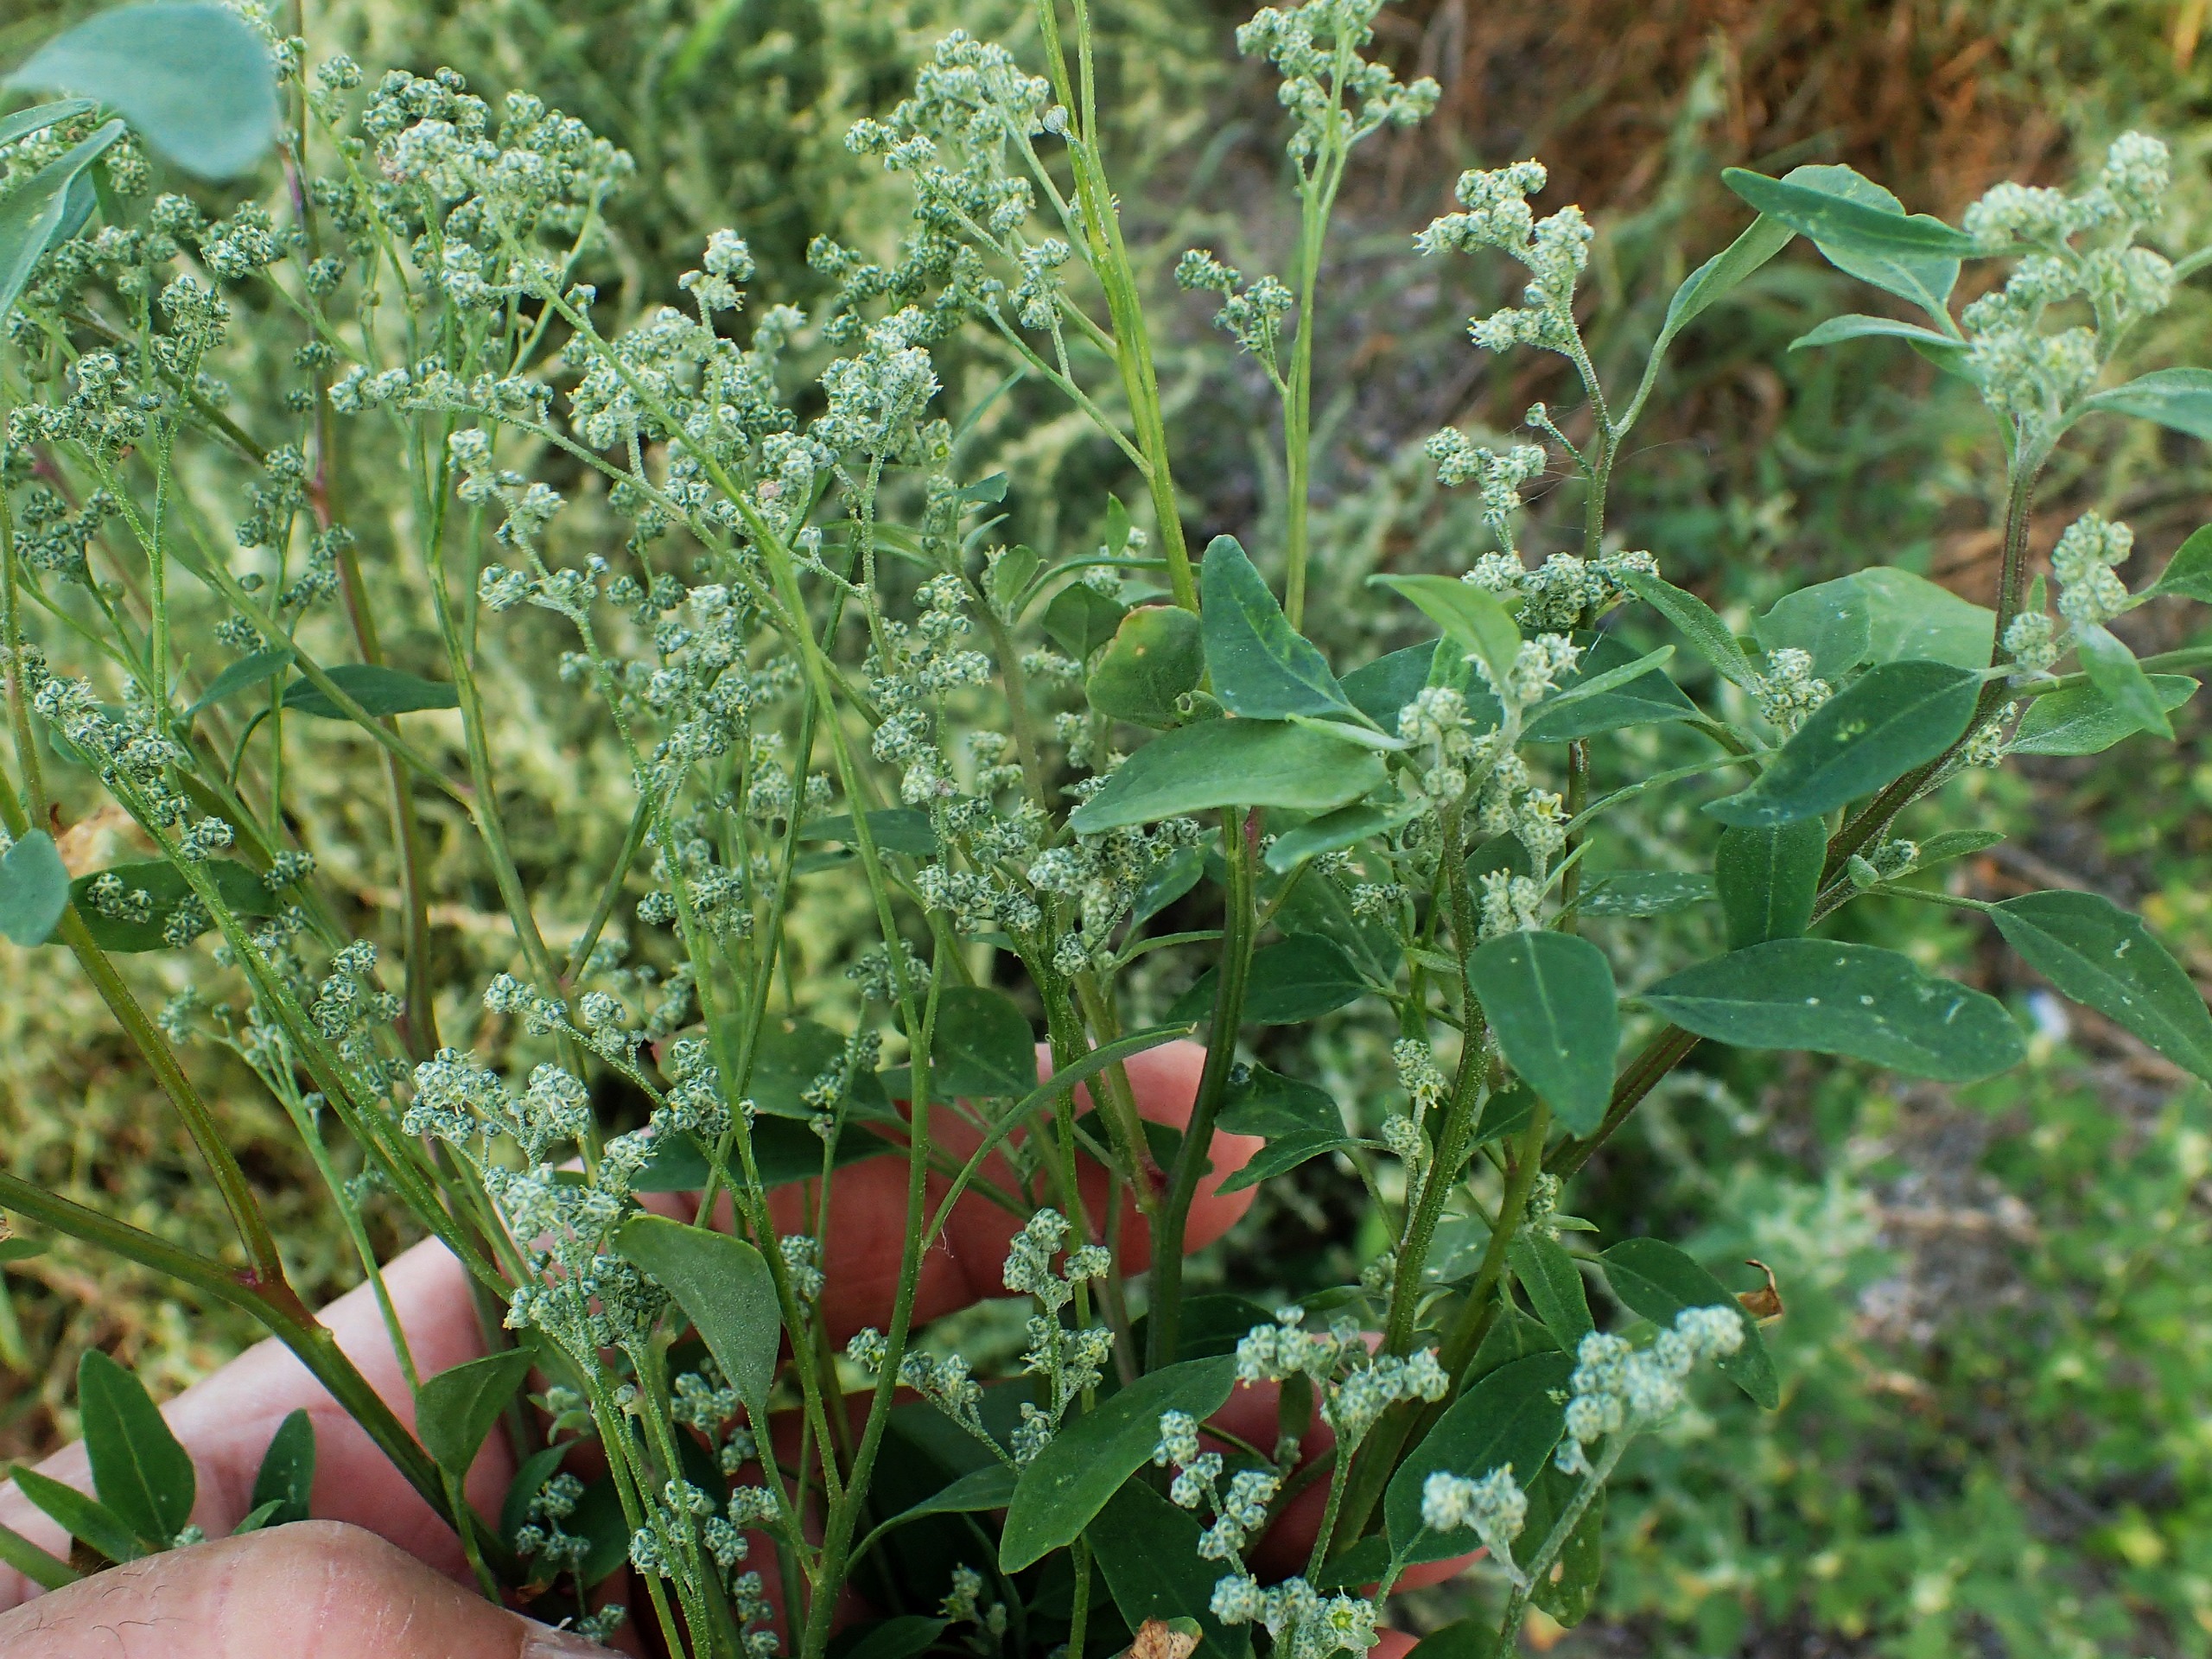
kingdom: Plantae
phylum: Tracheophyta
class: Magnoliopsida
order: Caryophyllales
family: Amaranthaceae
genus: Chenopodium
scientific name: Chenopodium album
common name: Stilkblomstret gåsefod
